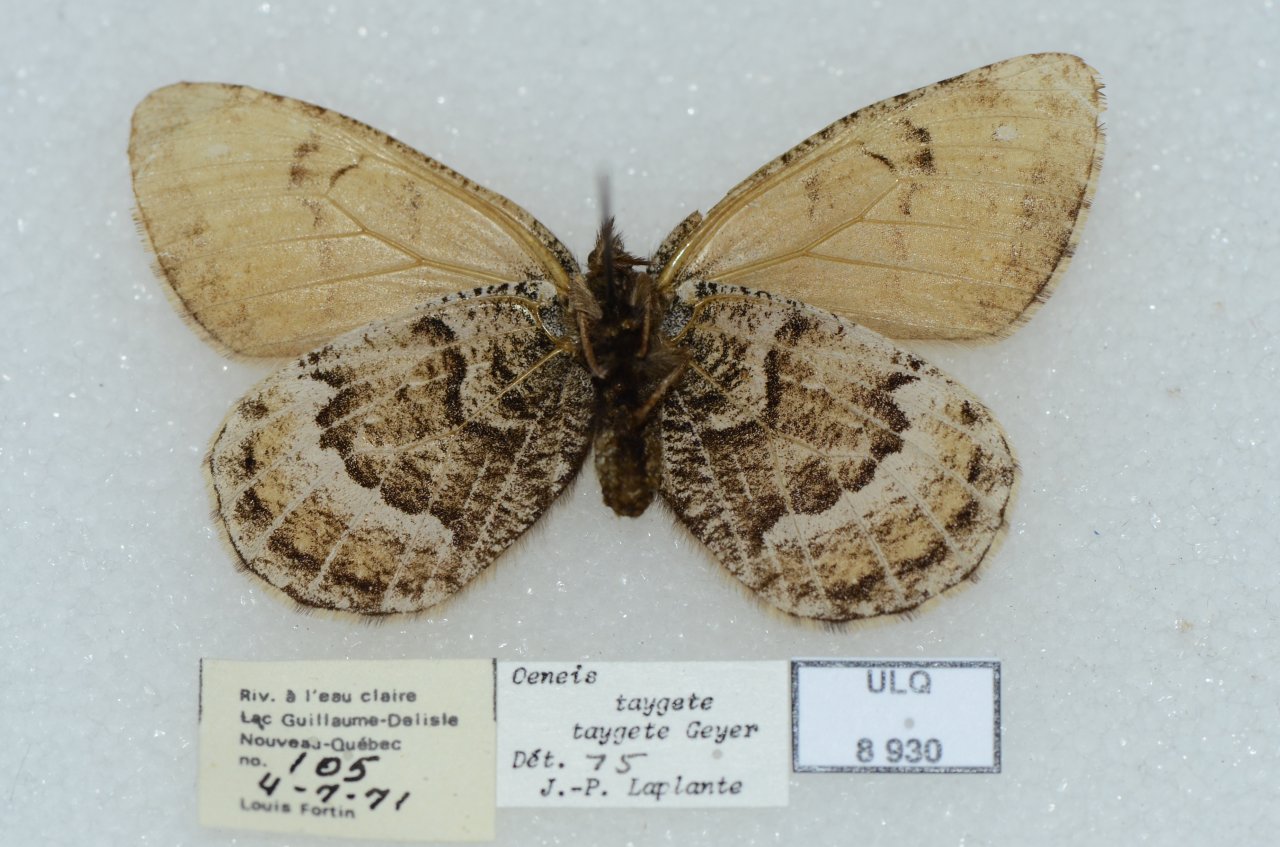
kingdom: Animalia
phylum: Arthropoda
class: Insecta
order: Lepidoptera
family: Nymphalidae
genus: Oeneis
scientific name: Oeneis bore
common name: White-veined Arctic
